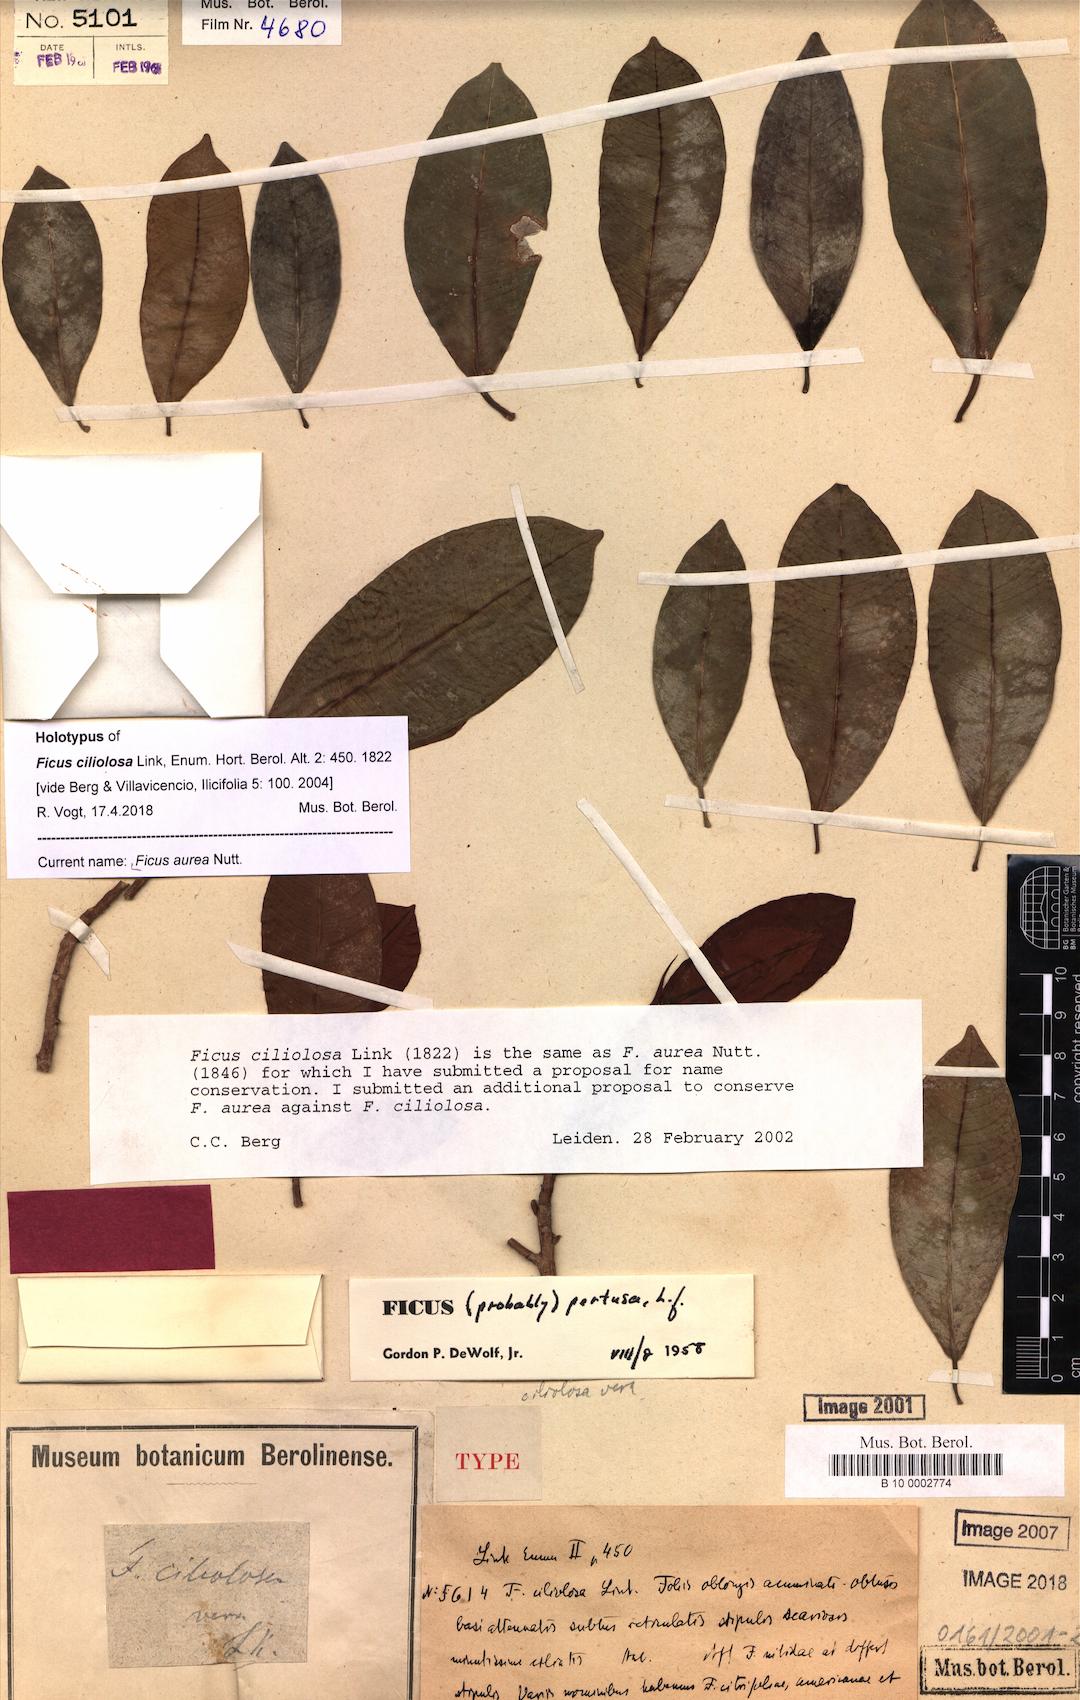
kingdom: Plantae
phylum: Tracheophyta
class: Magnoliopsida
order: Rosales
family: Moraceae
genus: Ficus
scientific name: Ficus aurea
